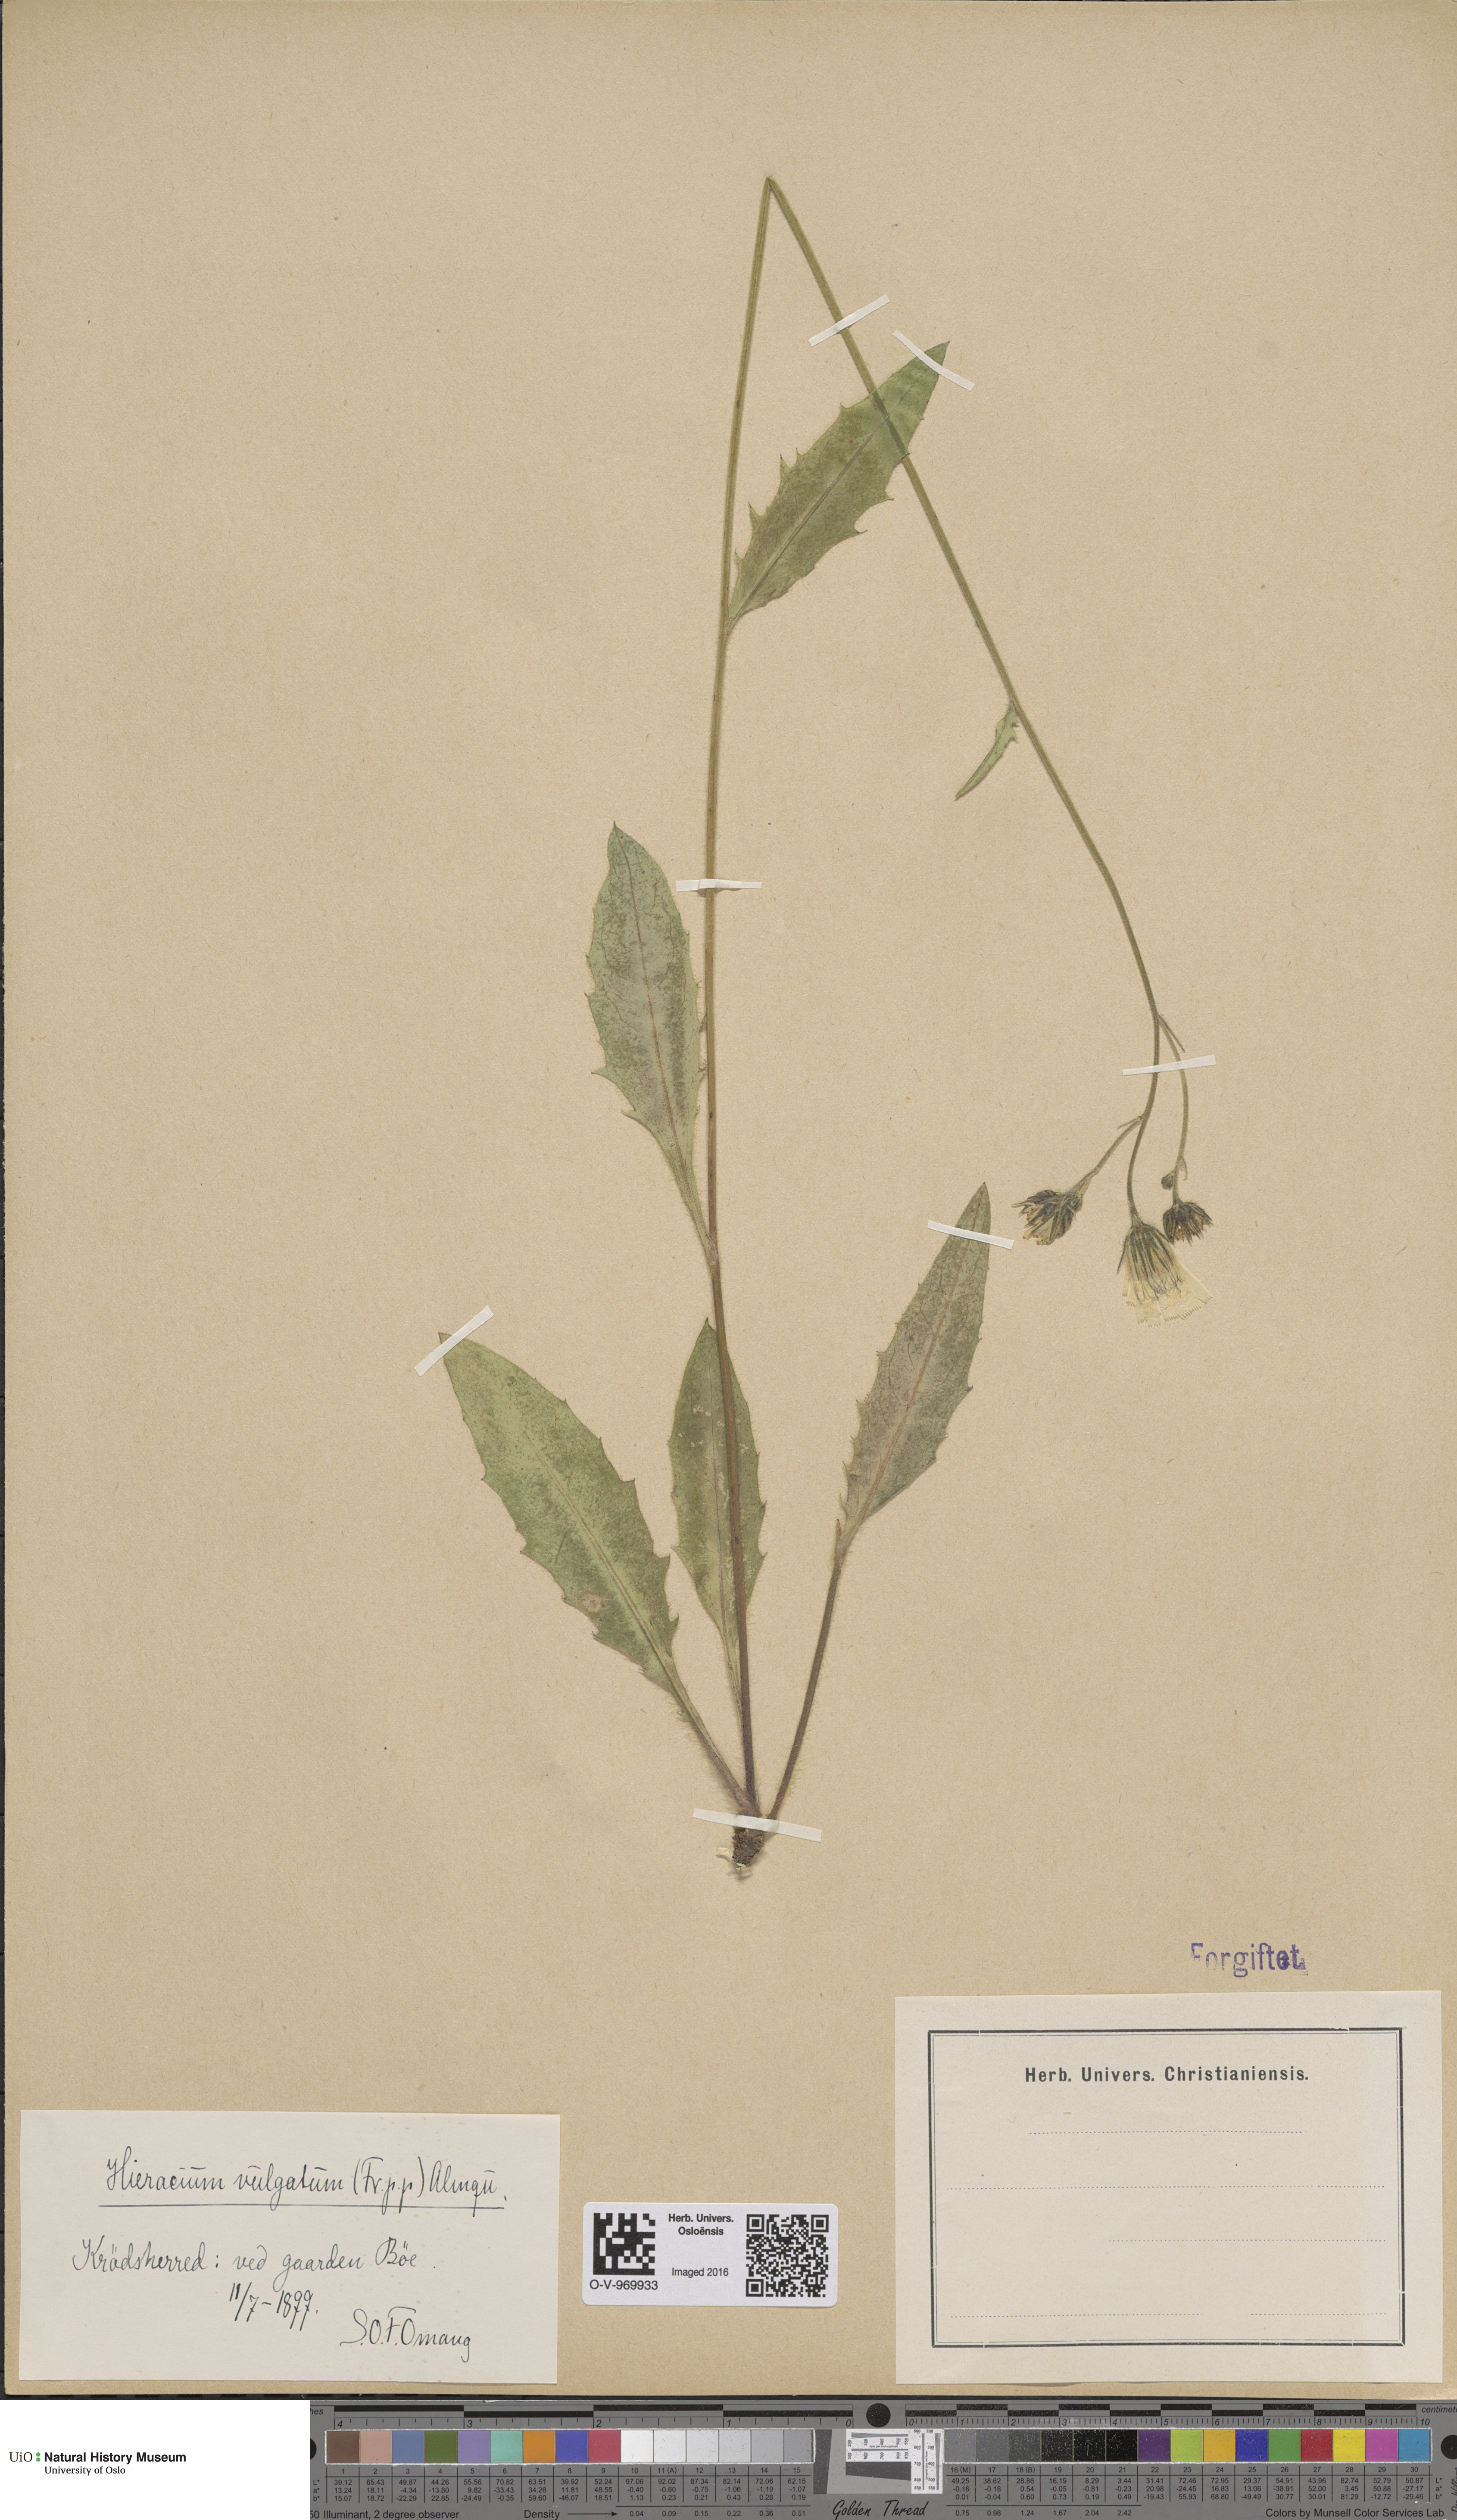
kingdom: Plantae
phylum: Tracheophyta
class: Magnoliopsida
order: Asterales
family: Asteraceae
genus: Hieracium
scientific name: Hieracium vulgatum
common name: Common hawkweed
